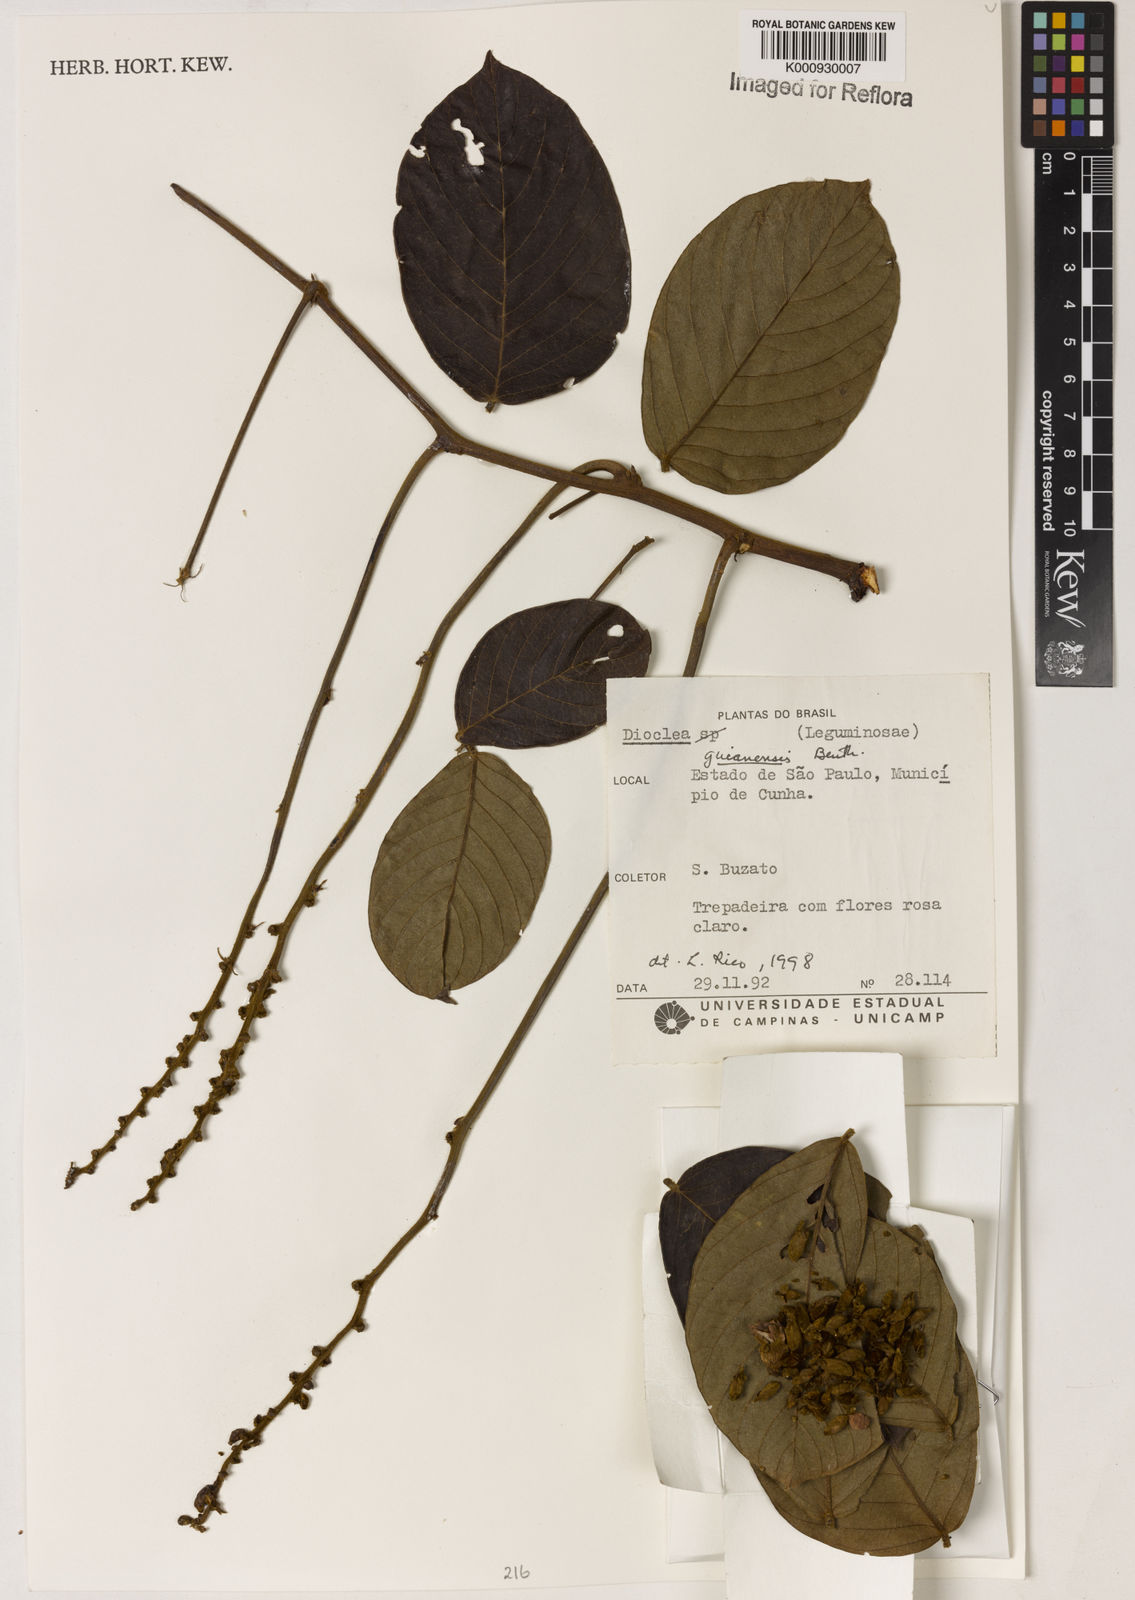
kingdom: Plantae
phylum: Tracheophyta
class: Magnoliopsida
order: Fabales
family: Fabaceae
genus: Dioclea
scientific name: Dioclea guianensis
